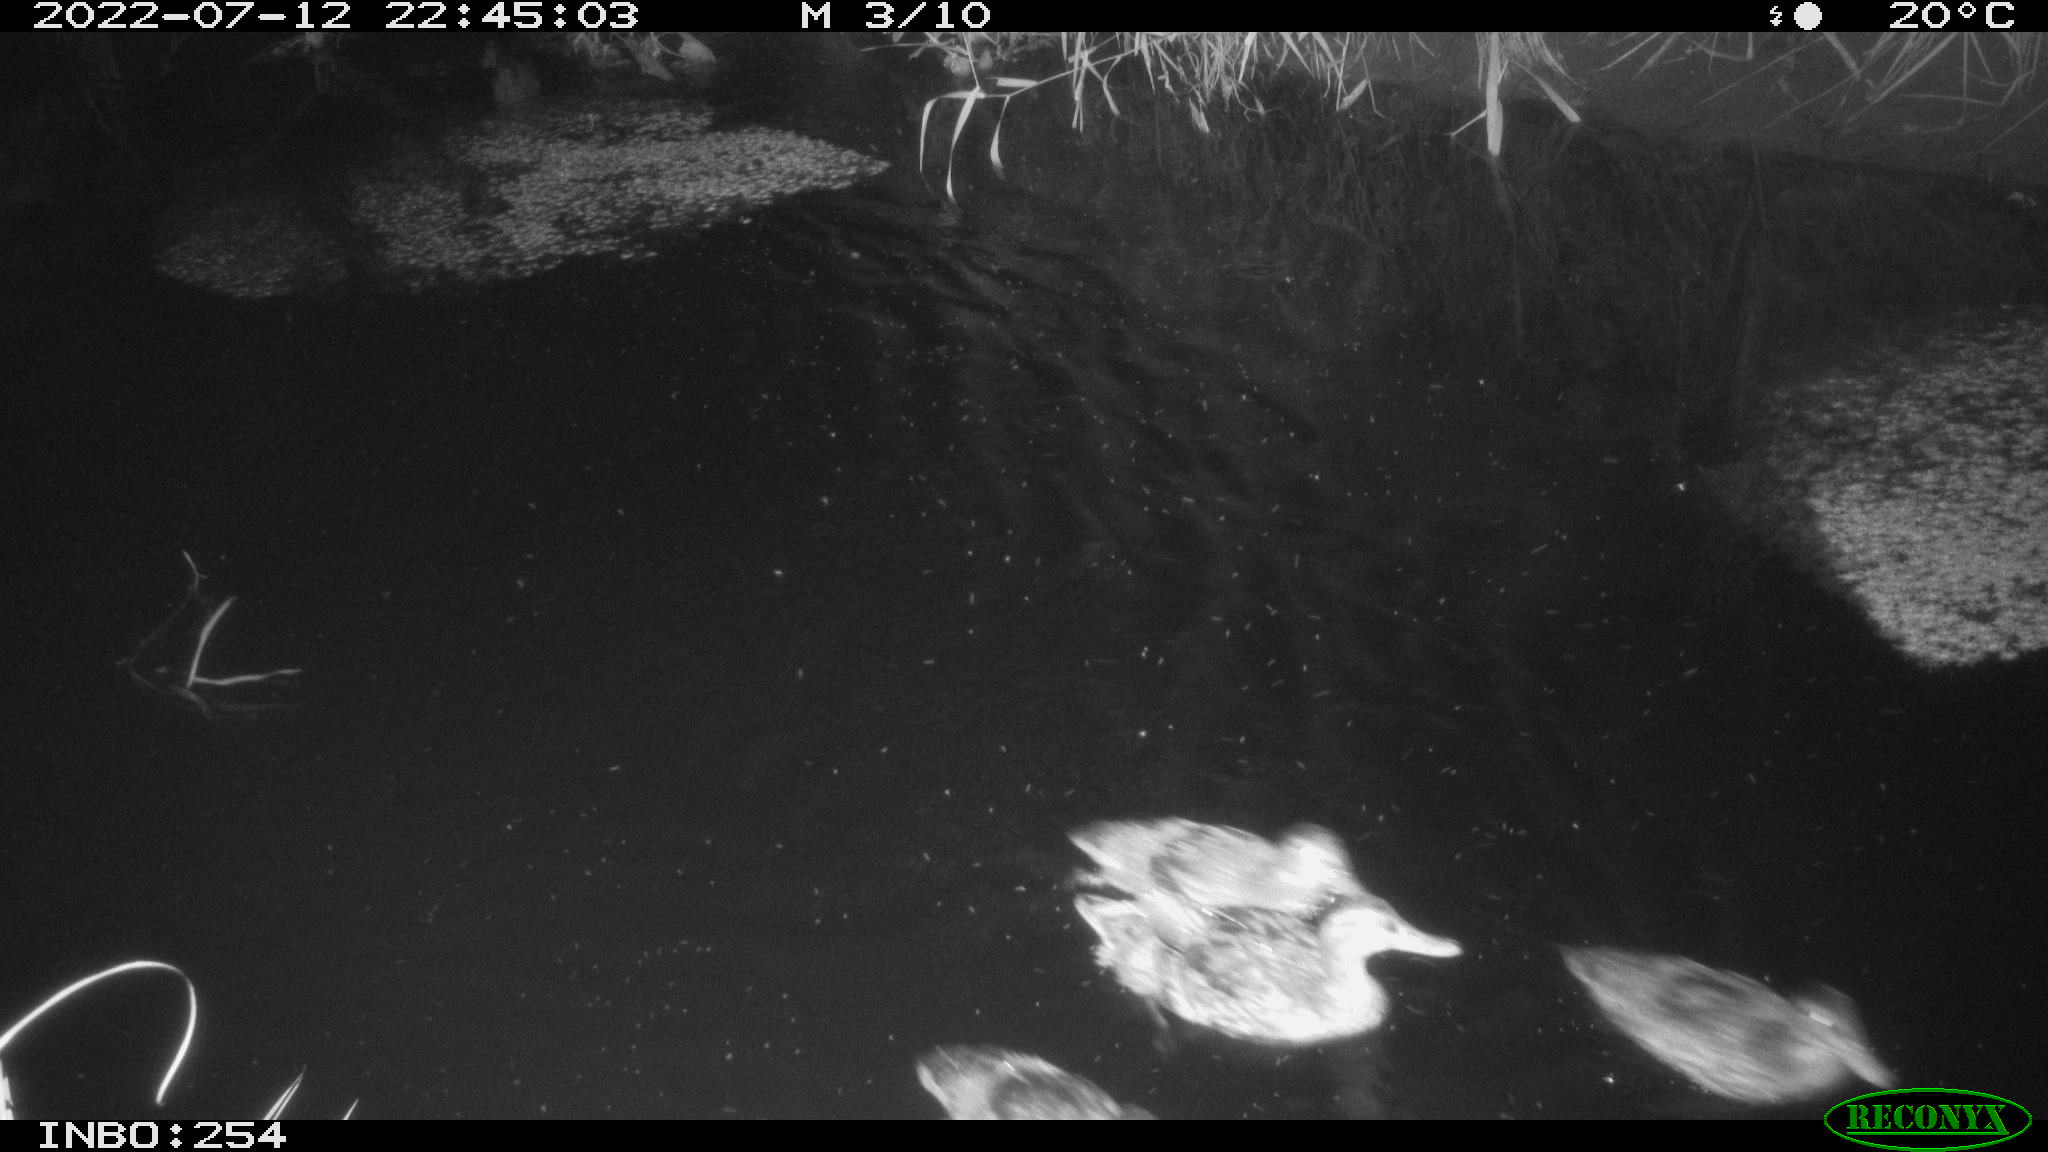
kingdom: Animalia
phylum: Chordata
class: Aves
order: Anseriformes
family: Anatidae
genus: Anas
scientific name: Anas platyrhynchos
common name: Mallard
